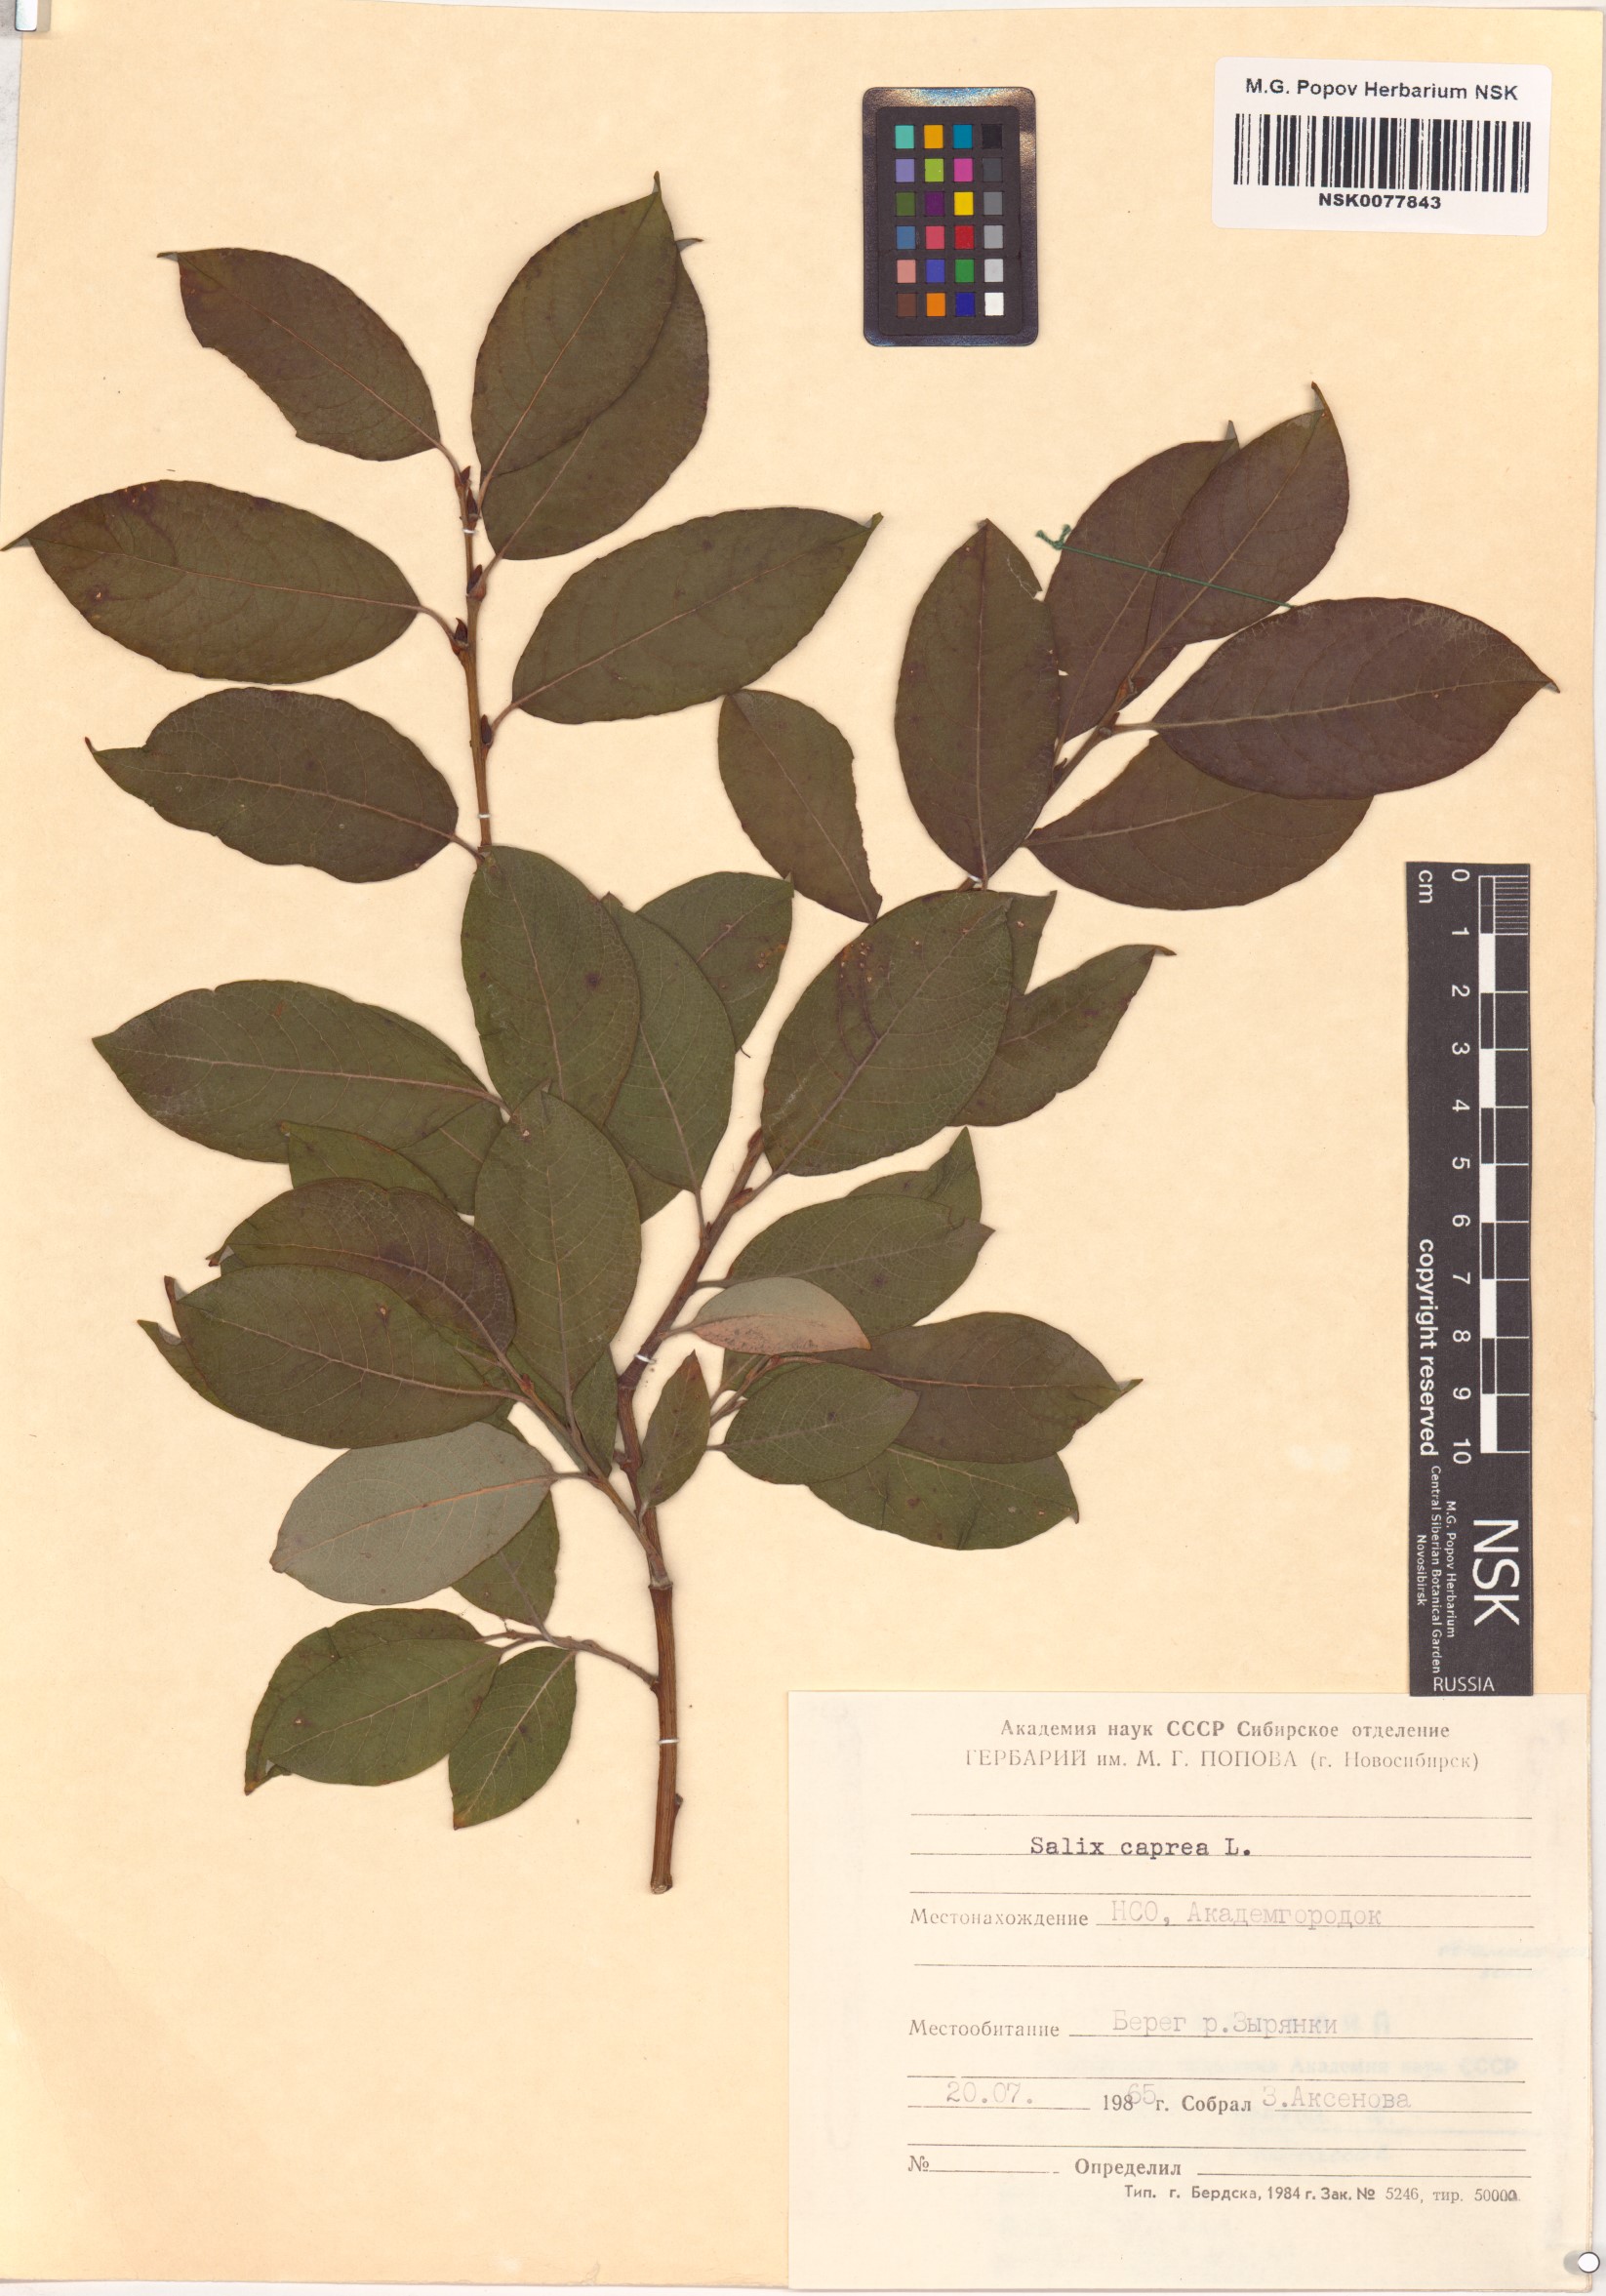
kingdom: Plantae
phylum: Tracheophyta
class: Magnoliopsida
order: Malpighiales
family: Salicaceae
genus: Salix
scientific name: Salix caprea
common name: Goat willow
